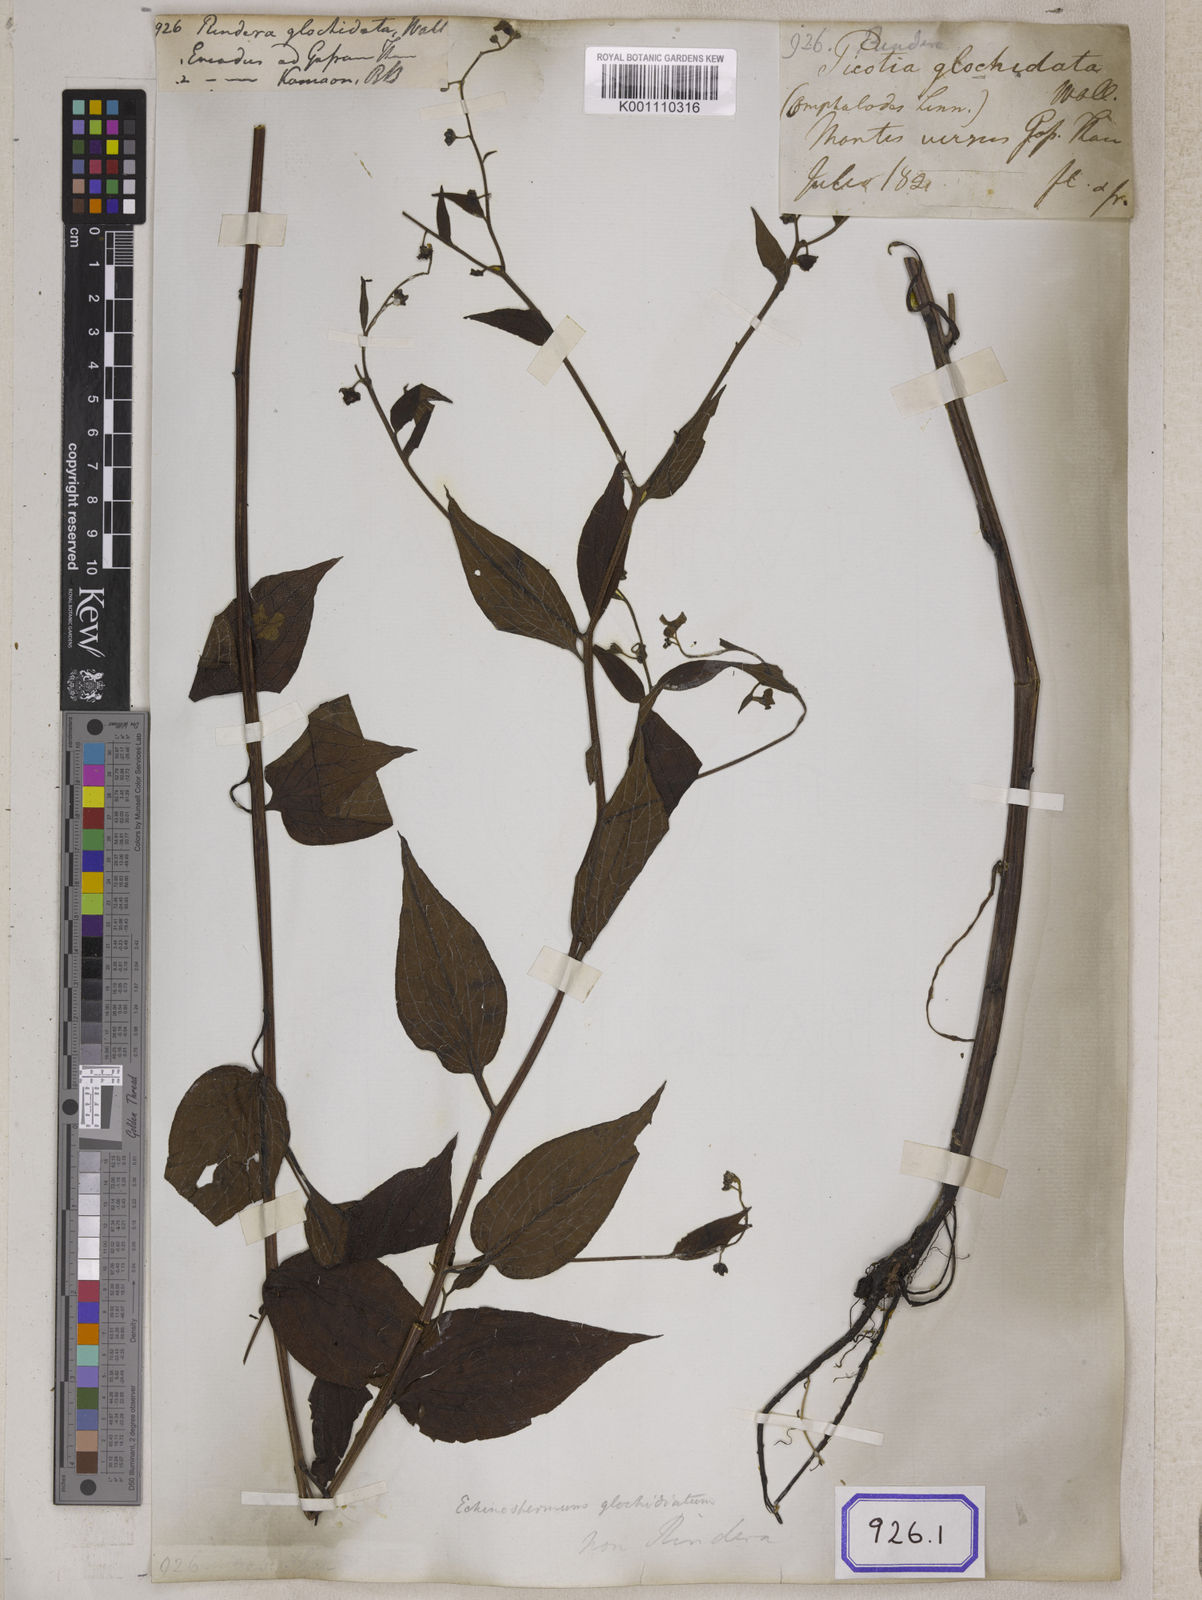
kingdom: Plantae
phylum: Tracheophyta
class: Magnoliopsida
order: Boraginales
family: Boraginaceae
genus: Hackelia
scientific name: Hackelia uncinata
